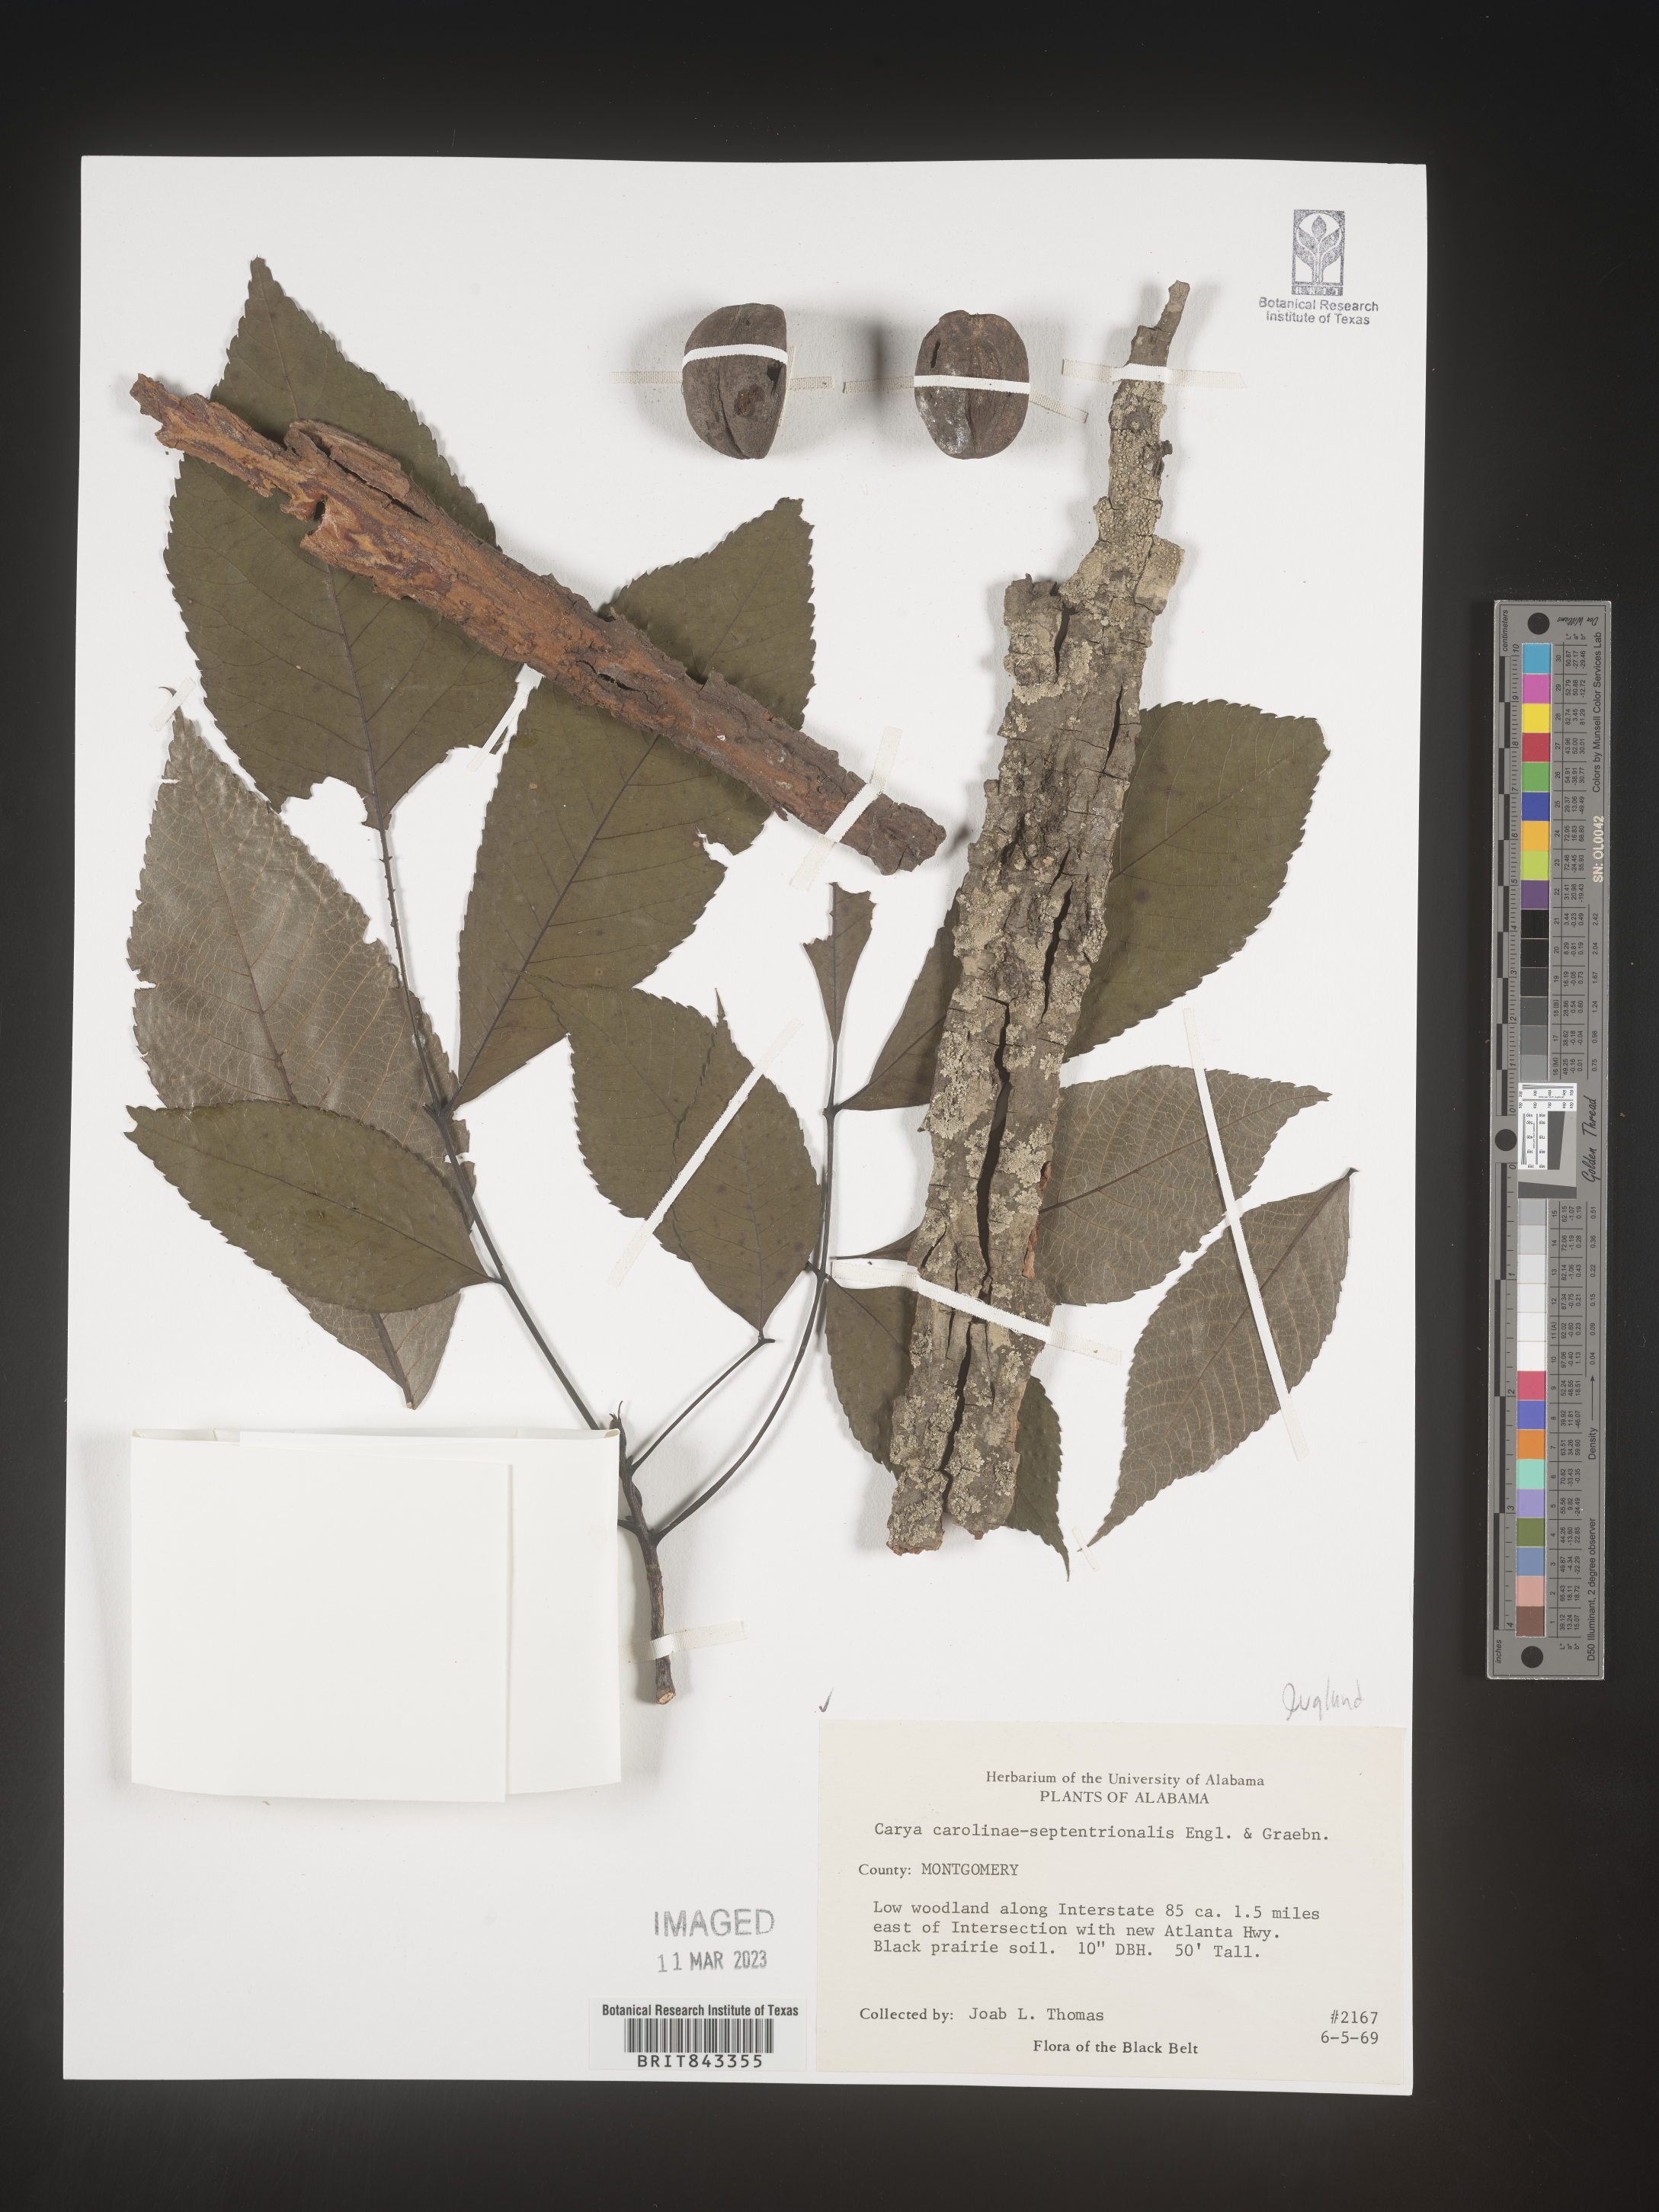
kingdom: Plantae
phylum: Tracheophyta
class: Magnoliopsida
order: Fagales
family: Juglandaceae
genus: Carya
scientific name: Carya carolinae-septentrionalis
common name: Carolina hickory
